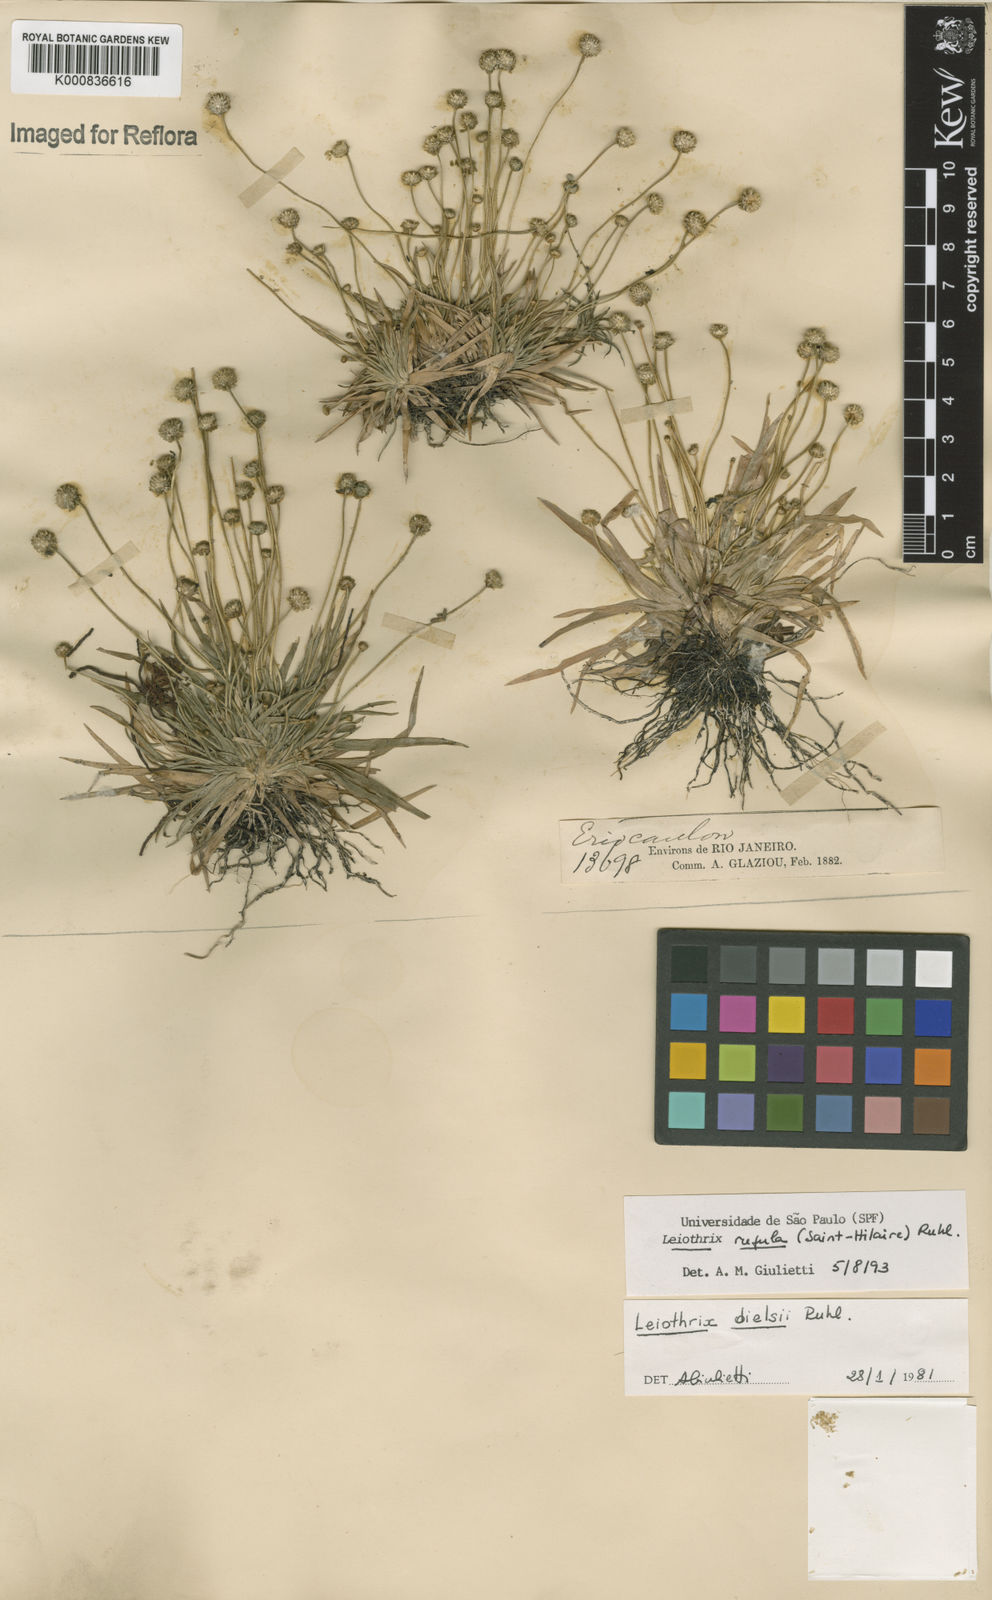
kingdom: Plantae
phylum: Tracheophyta
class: Liliopsida
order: Poales
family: Eriocaulaceae
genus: Leiothrix
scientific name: Leiothrix rufula
